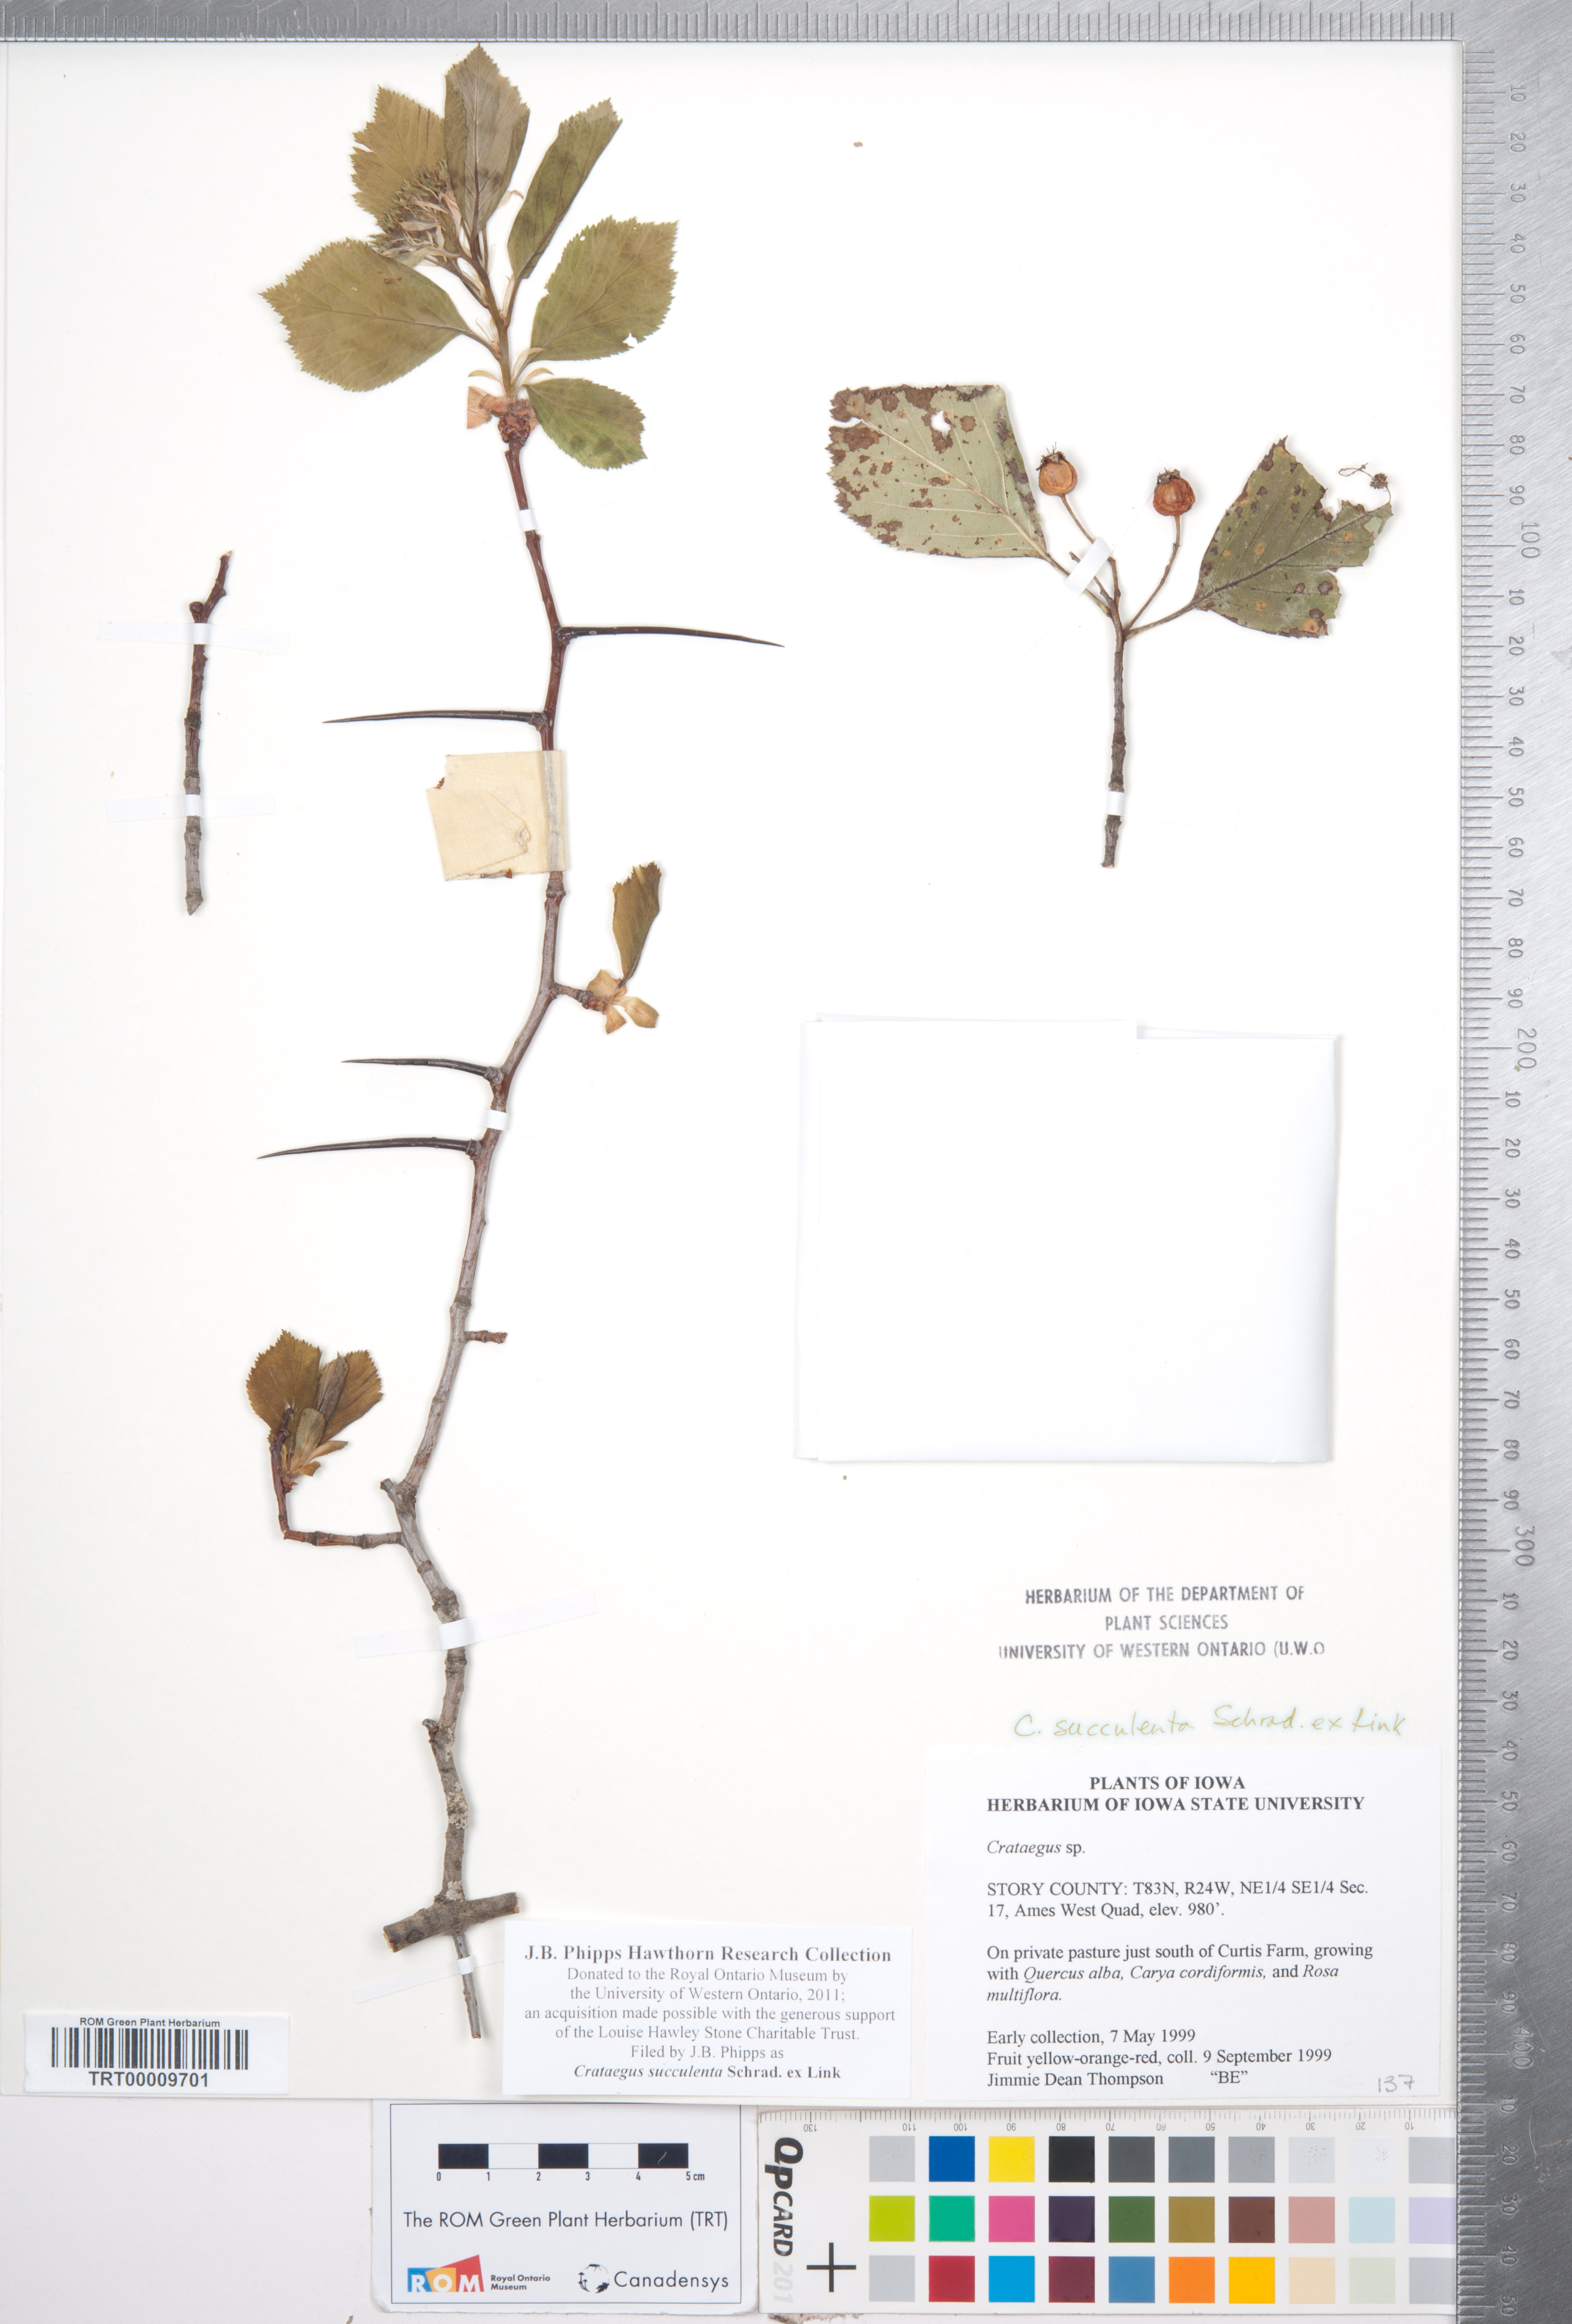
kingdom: Plantae
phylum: Tracheophyta
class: Magnoliopsida
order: Rosales
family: Rosaceae
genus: Crataegus
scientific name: Crataegus succulenta
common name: Fleshy hawthorn
